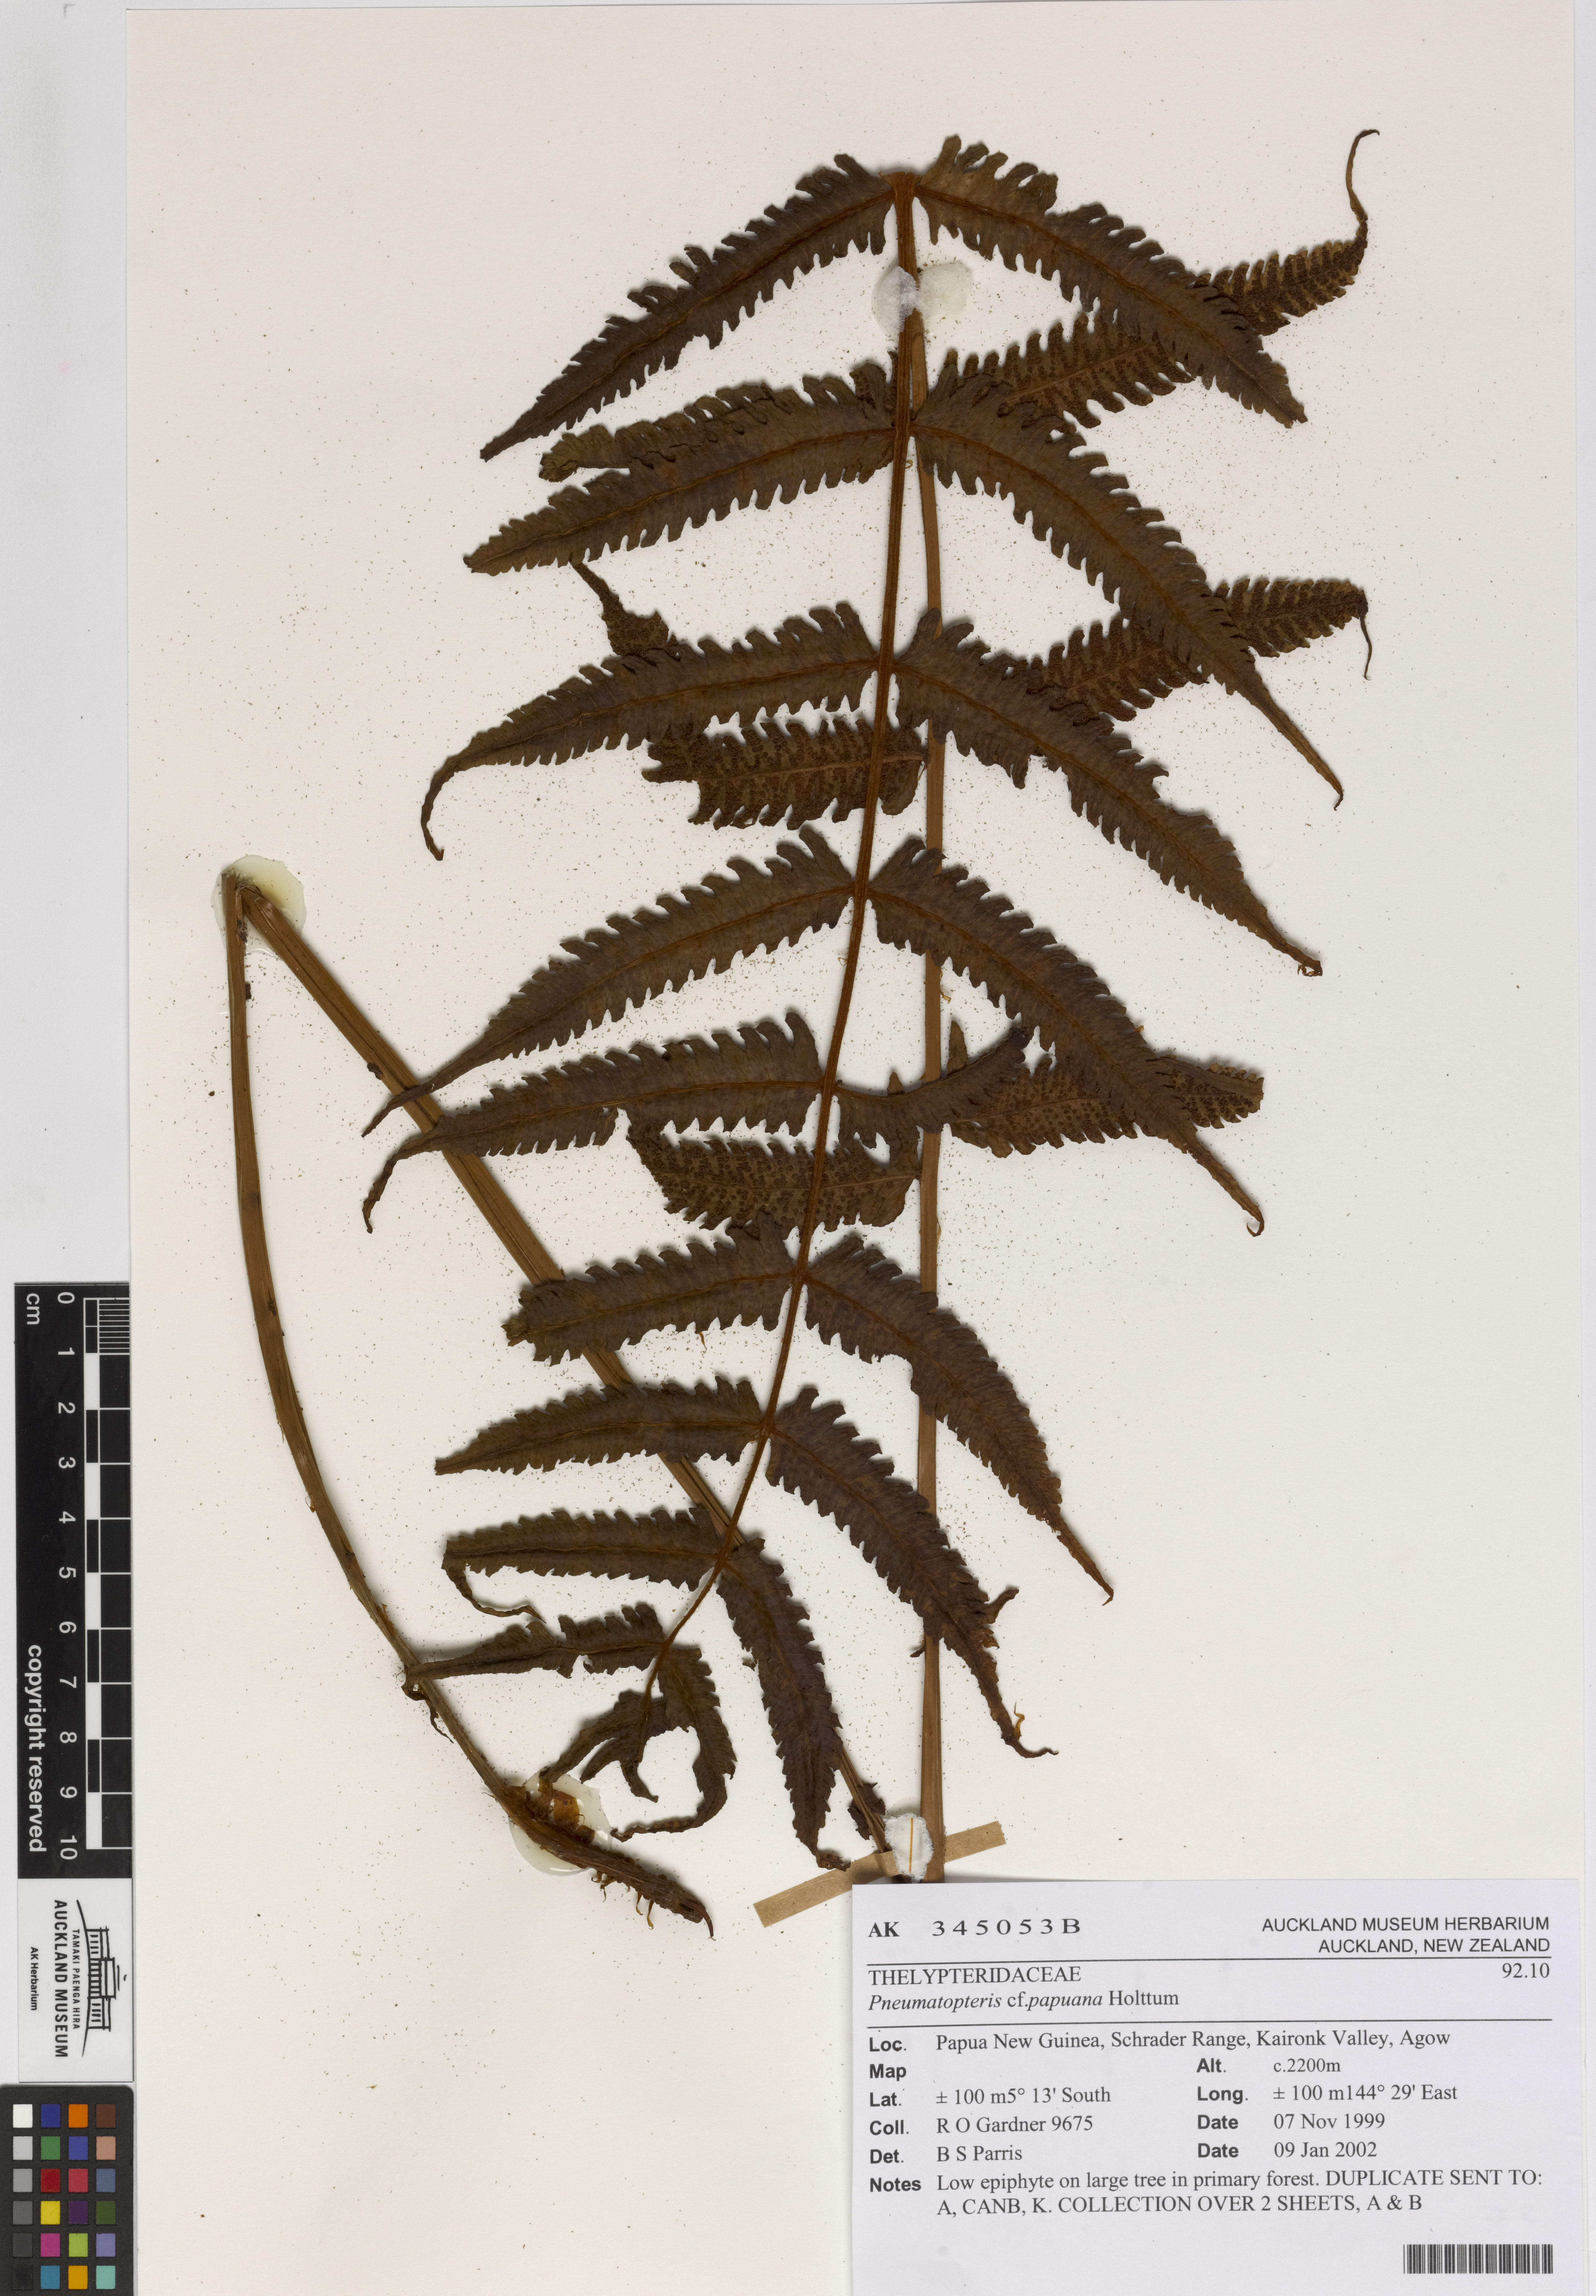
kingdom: Plantae
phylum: Tracheophyta
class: Polypodiopsida
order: Polypodiales
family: Thelypteridaceae
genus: Reholttumia
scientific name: Reholttumia papuana
